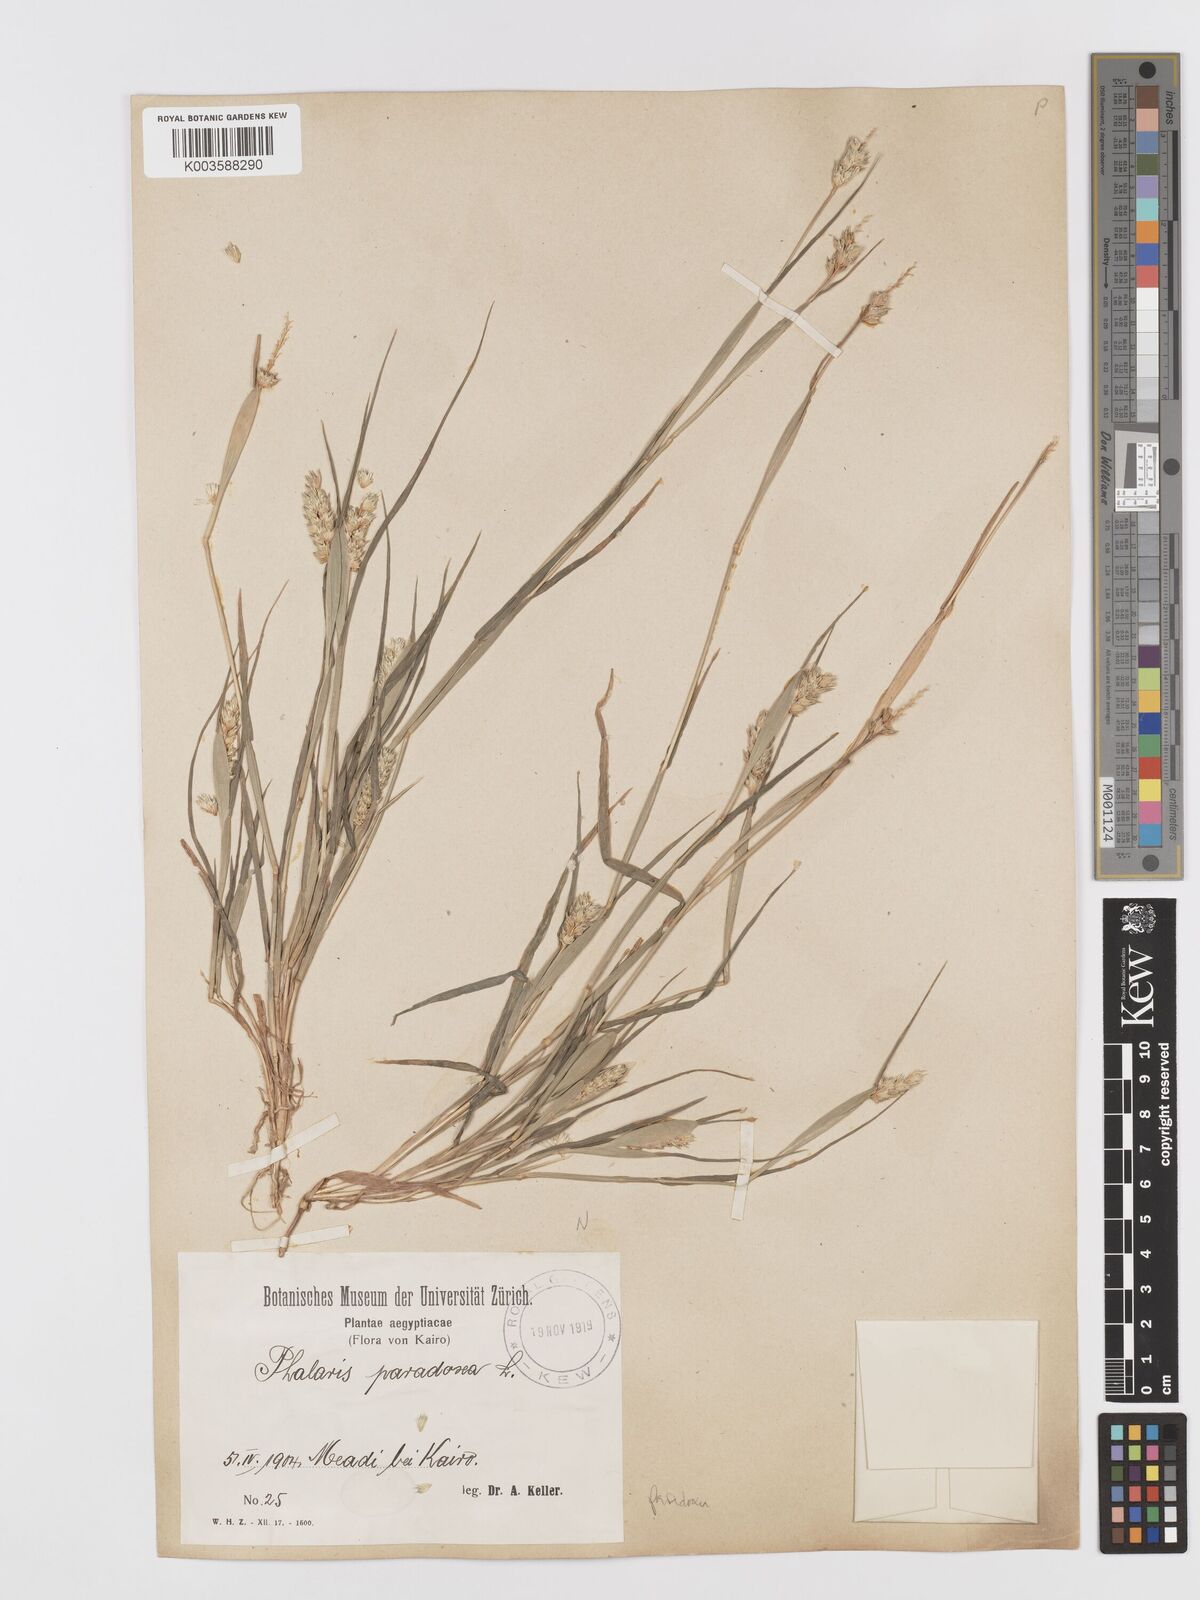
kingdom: Plantae
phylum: Tracheophyta
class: Liliopsida
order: Poales
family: Poaceae
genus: Phalaris
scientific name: Phalaris paradoxa
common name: Awned canary-grass
